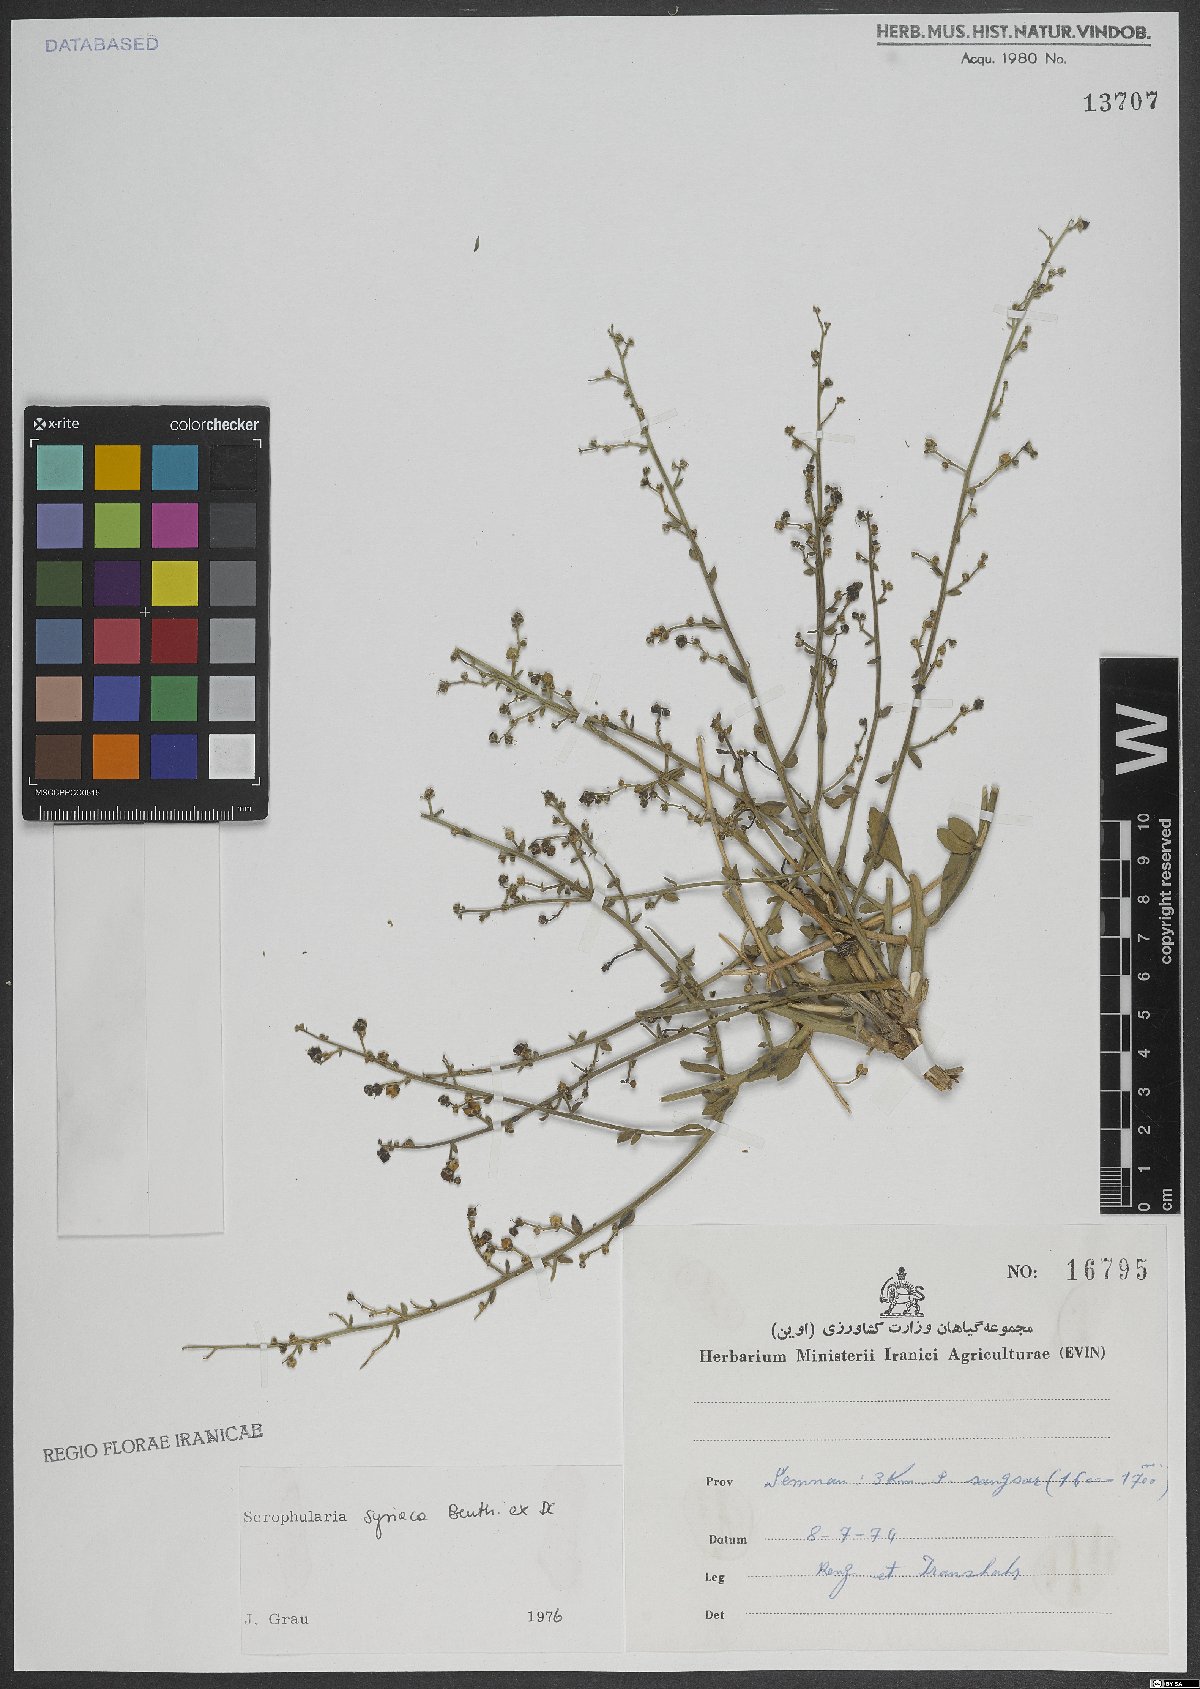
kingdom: Plantae
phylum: Tracheophyta
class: Magnoliopsida
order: Lamiales
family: Scrophulariaceae
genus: Scrophularia
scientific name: Scrophularia hypericifolia
